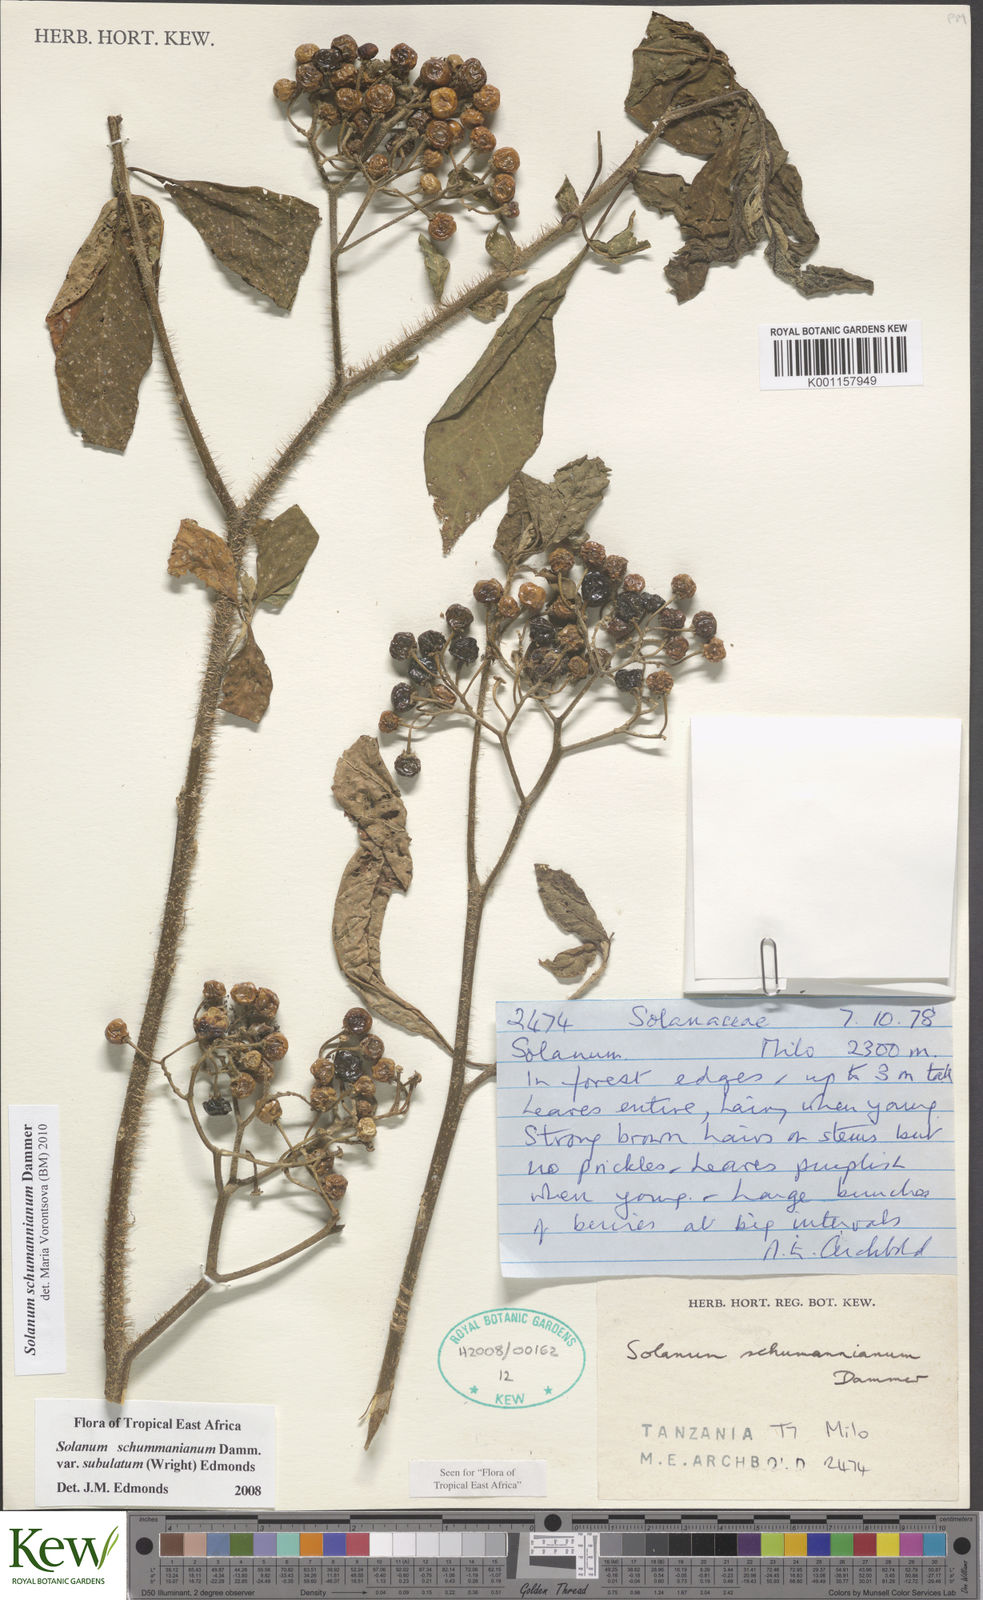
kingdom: Plantae
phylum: Tracheophyta
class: Magnoliopsida
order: Solanales
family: Solanaceae
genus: Solanum
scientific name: Solanum schumannianum
